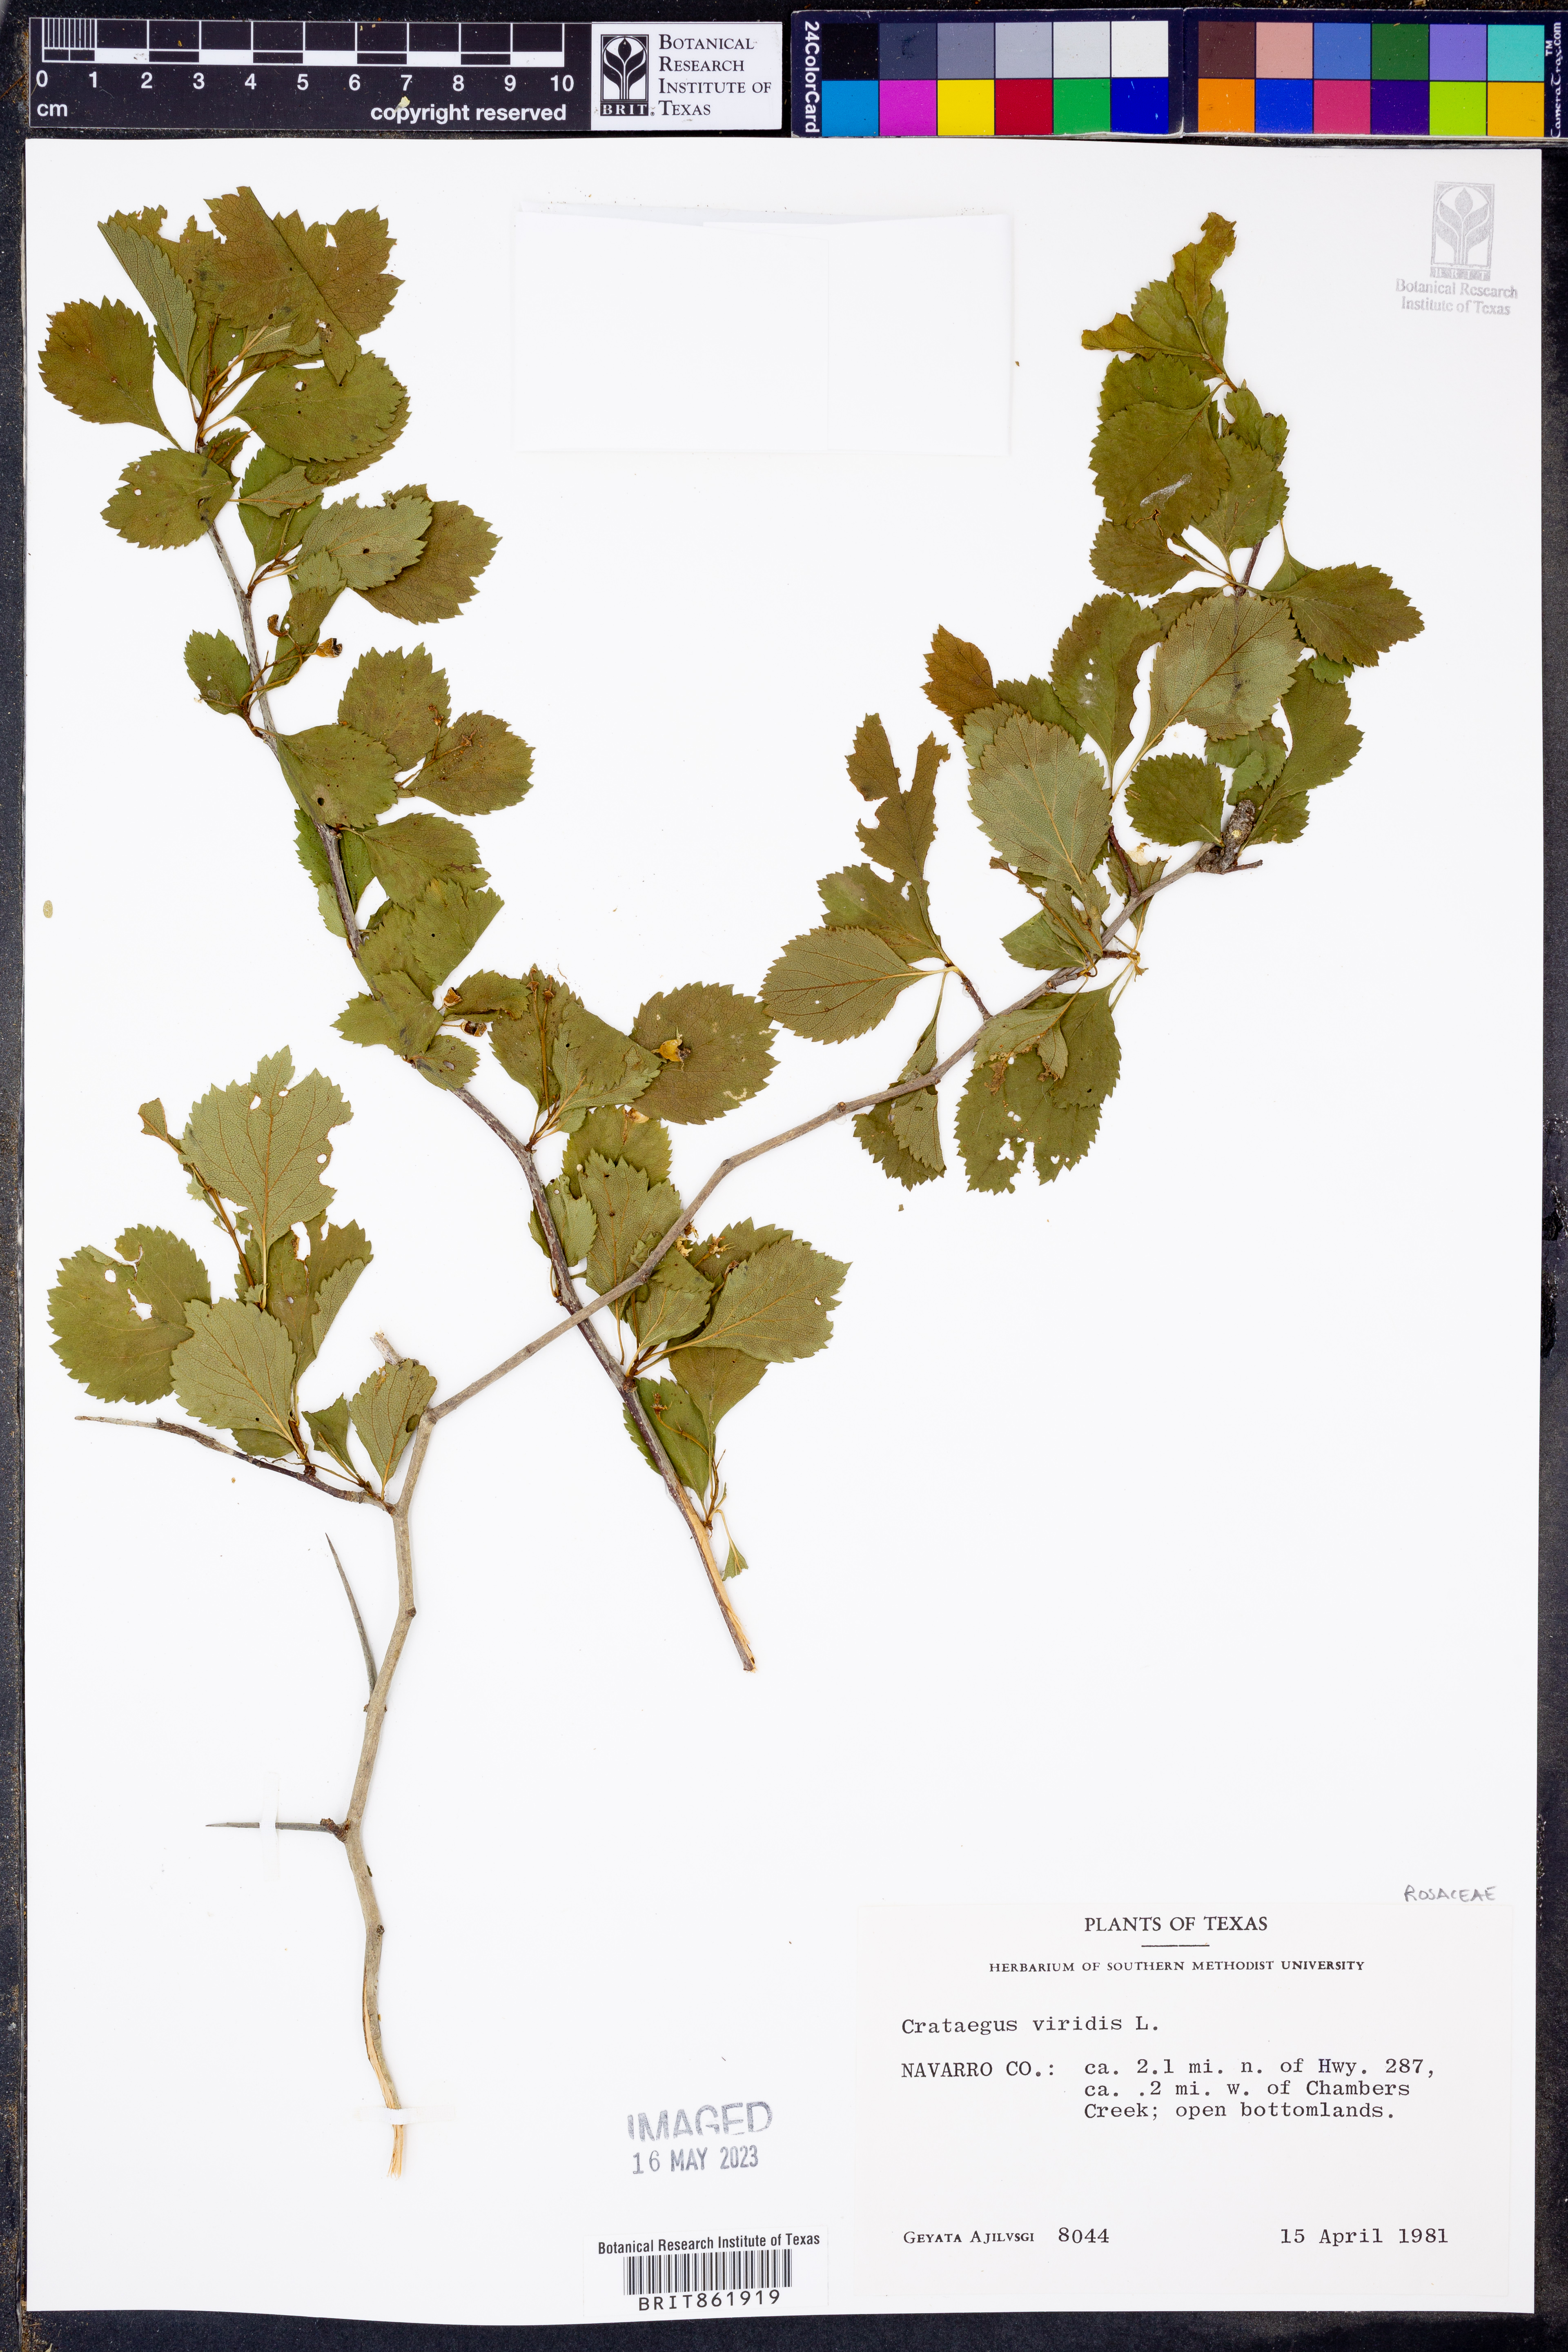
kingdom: Plantae
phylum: Tracheophyta
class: Magnoliopsida
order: Rosales
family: Rosaceae
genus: Crataegus
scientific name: Crataegus viridis
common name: Southernthorn
